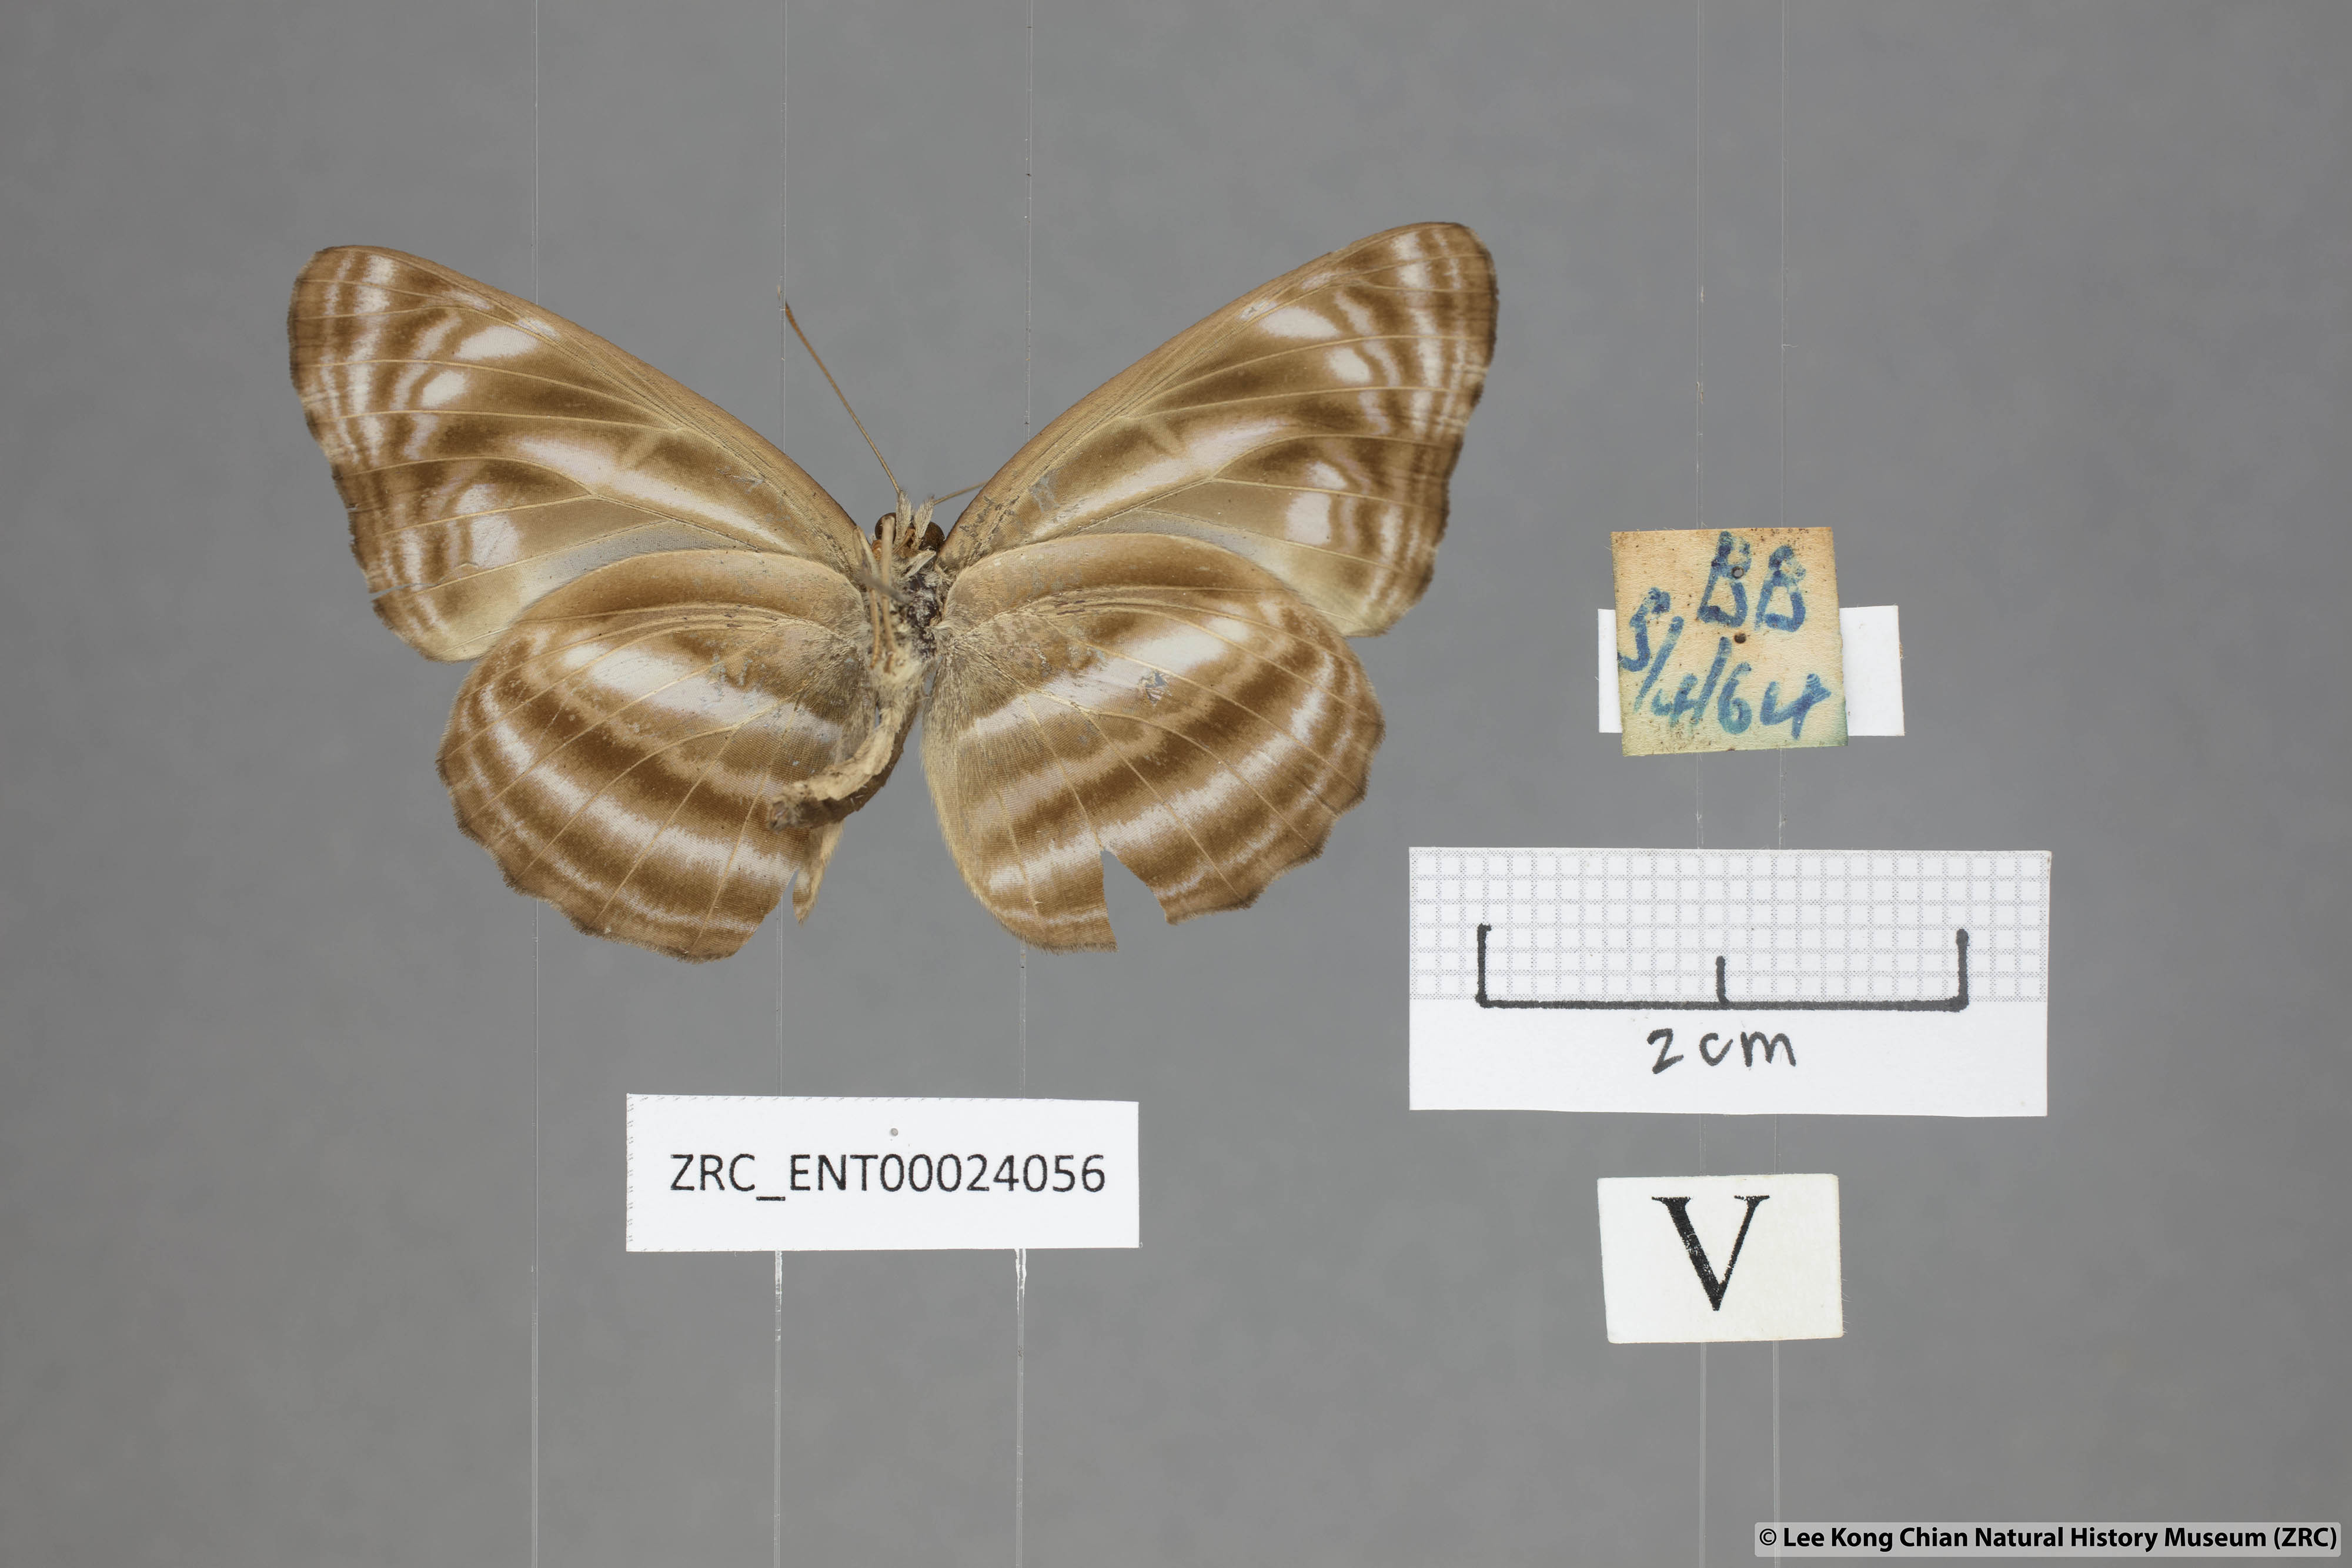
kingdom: Animalia
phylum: Arthropoda
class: Insecta
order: Lepidoptera
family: Nymphalidae
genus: Neptis
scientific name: Neptis omeroda
